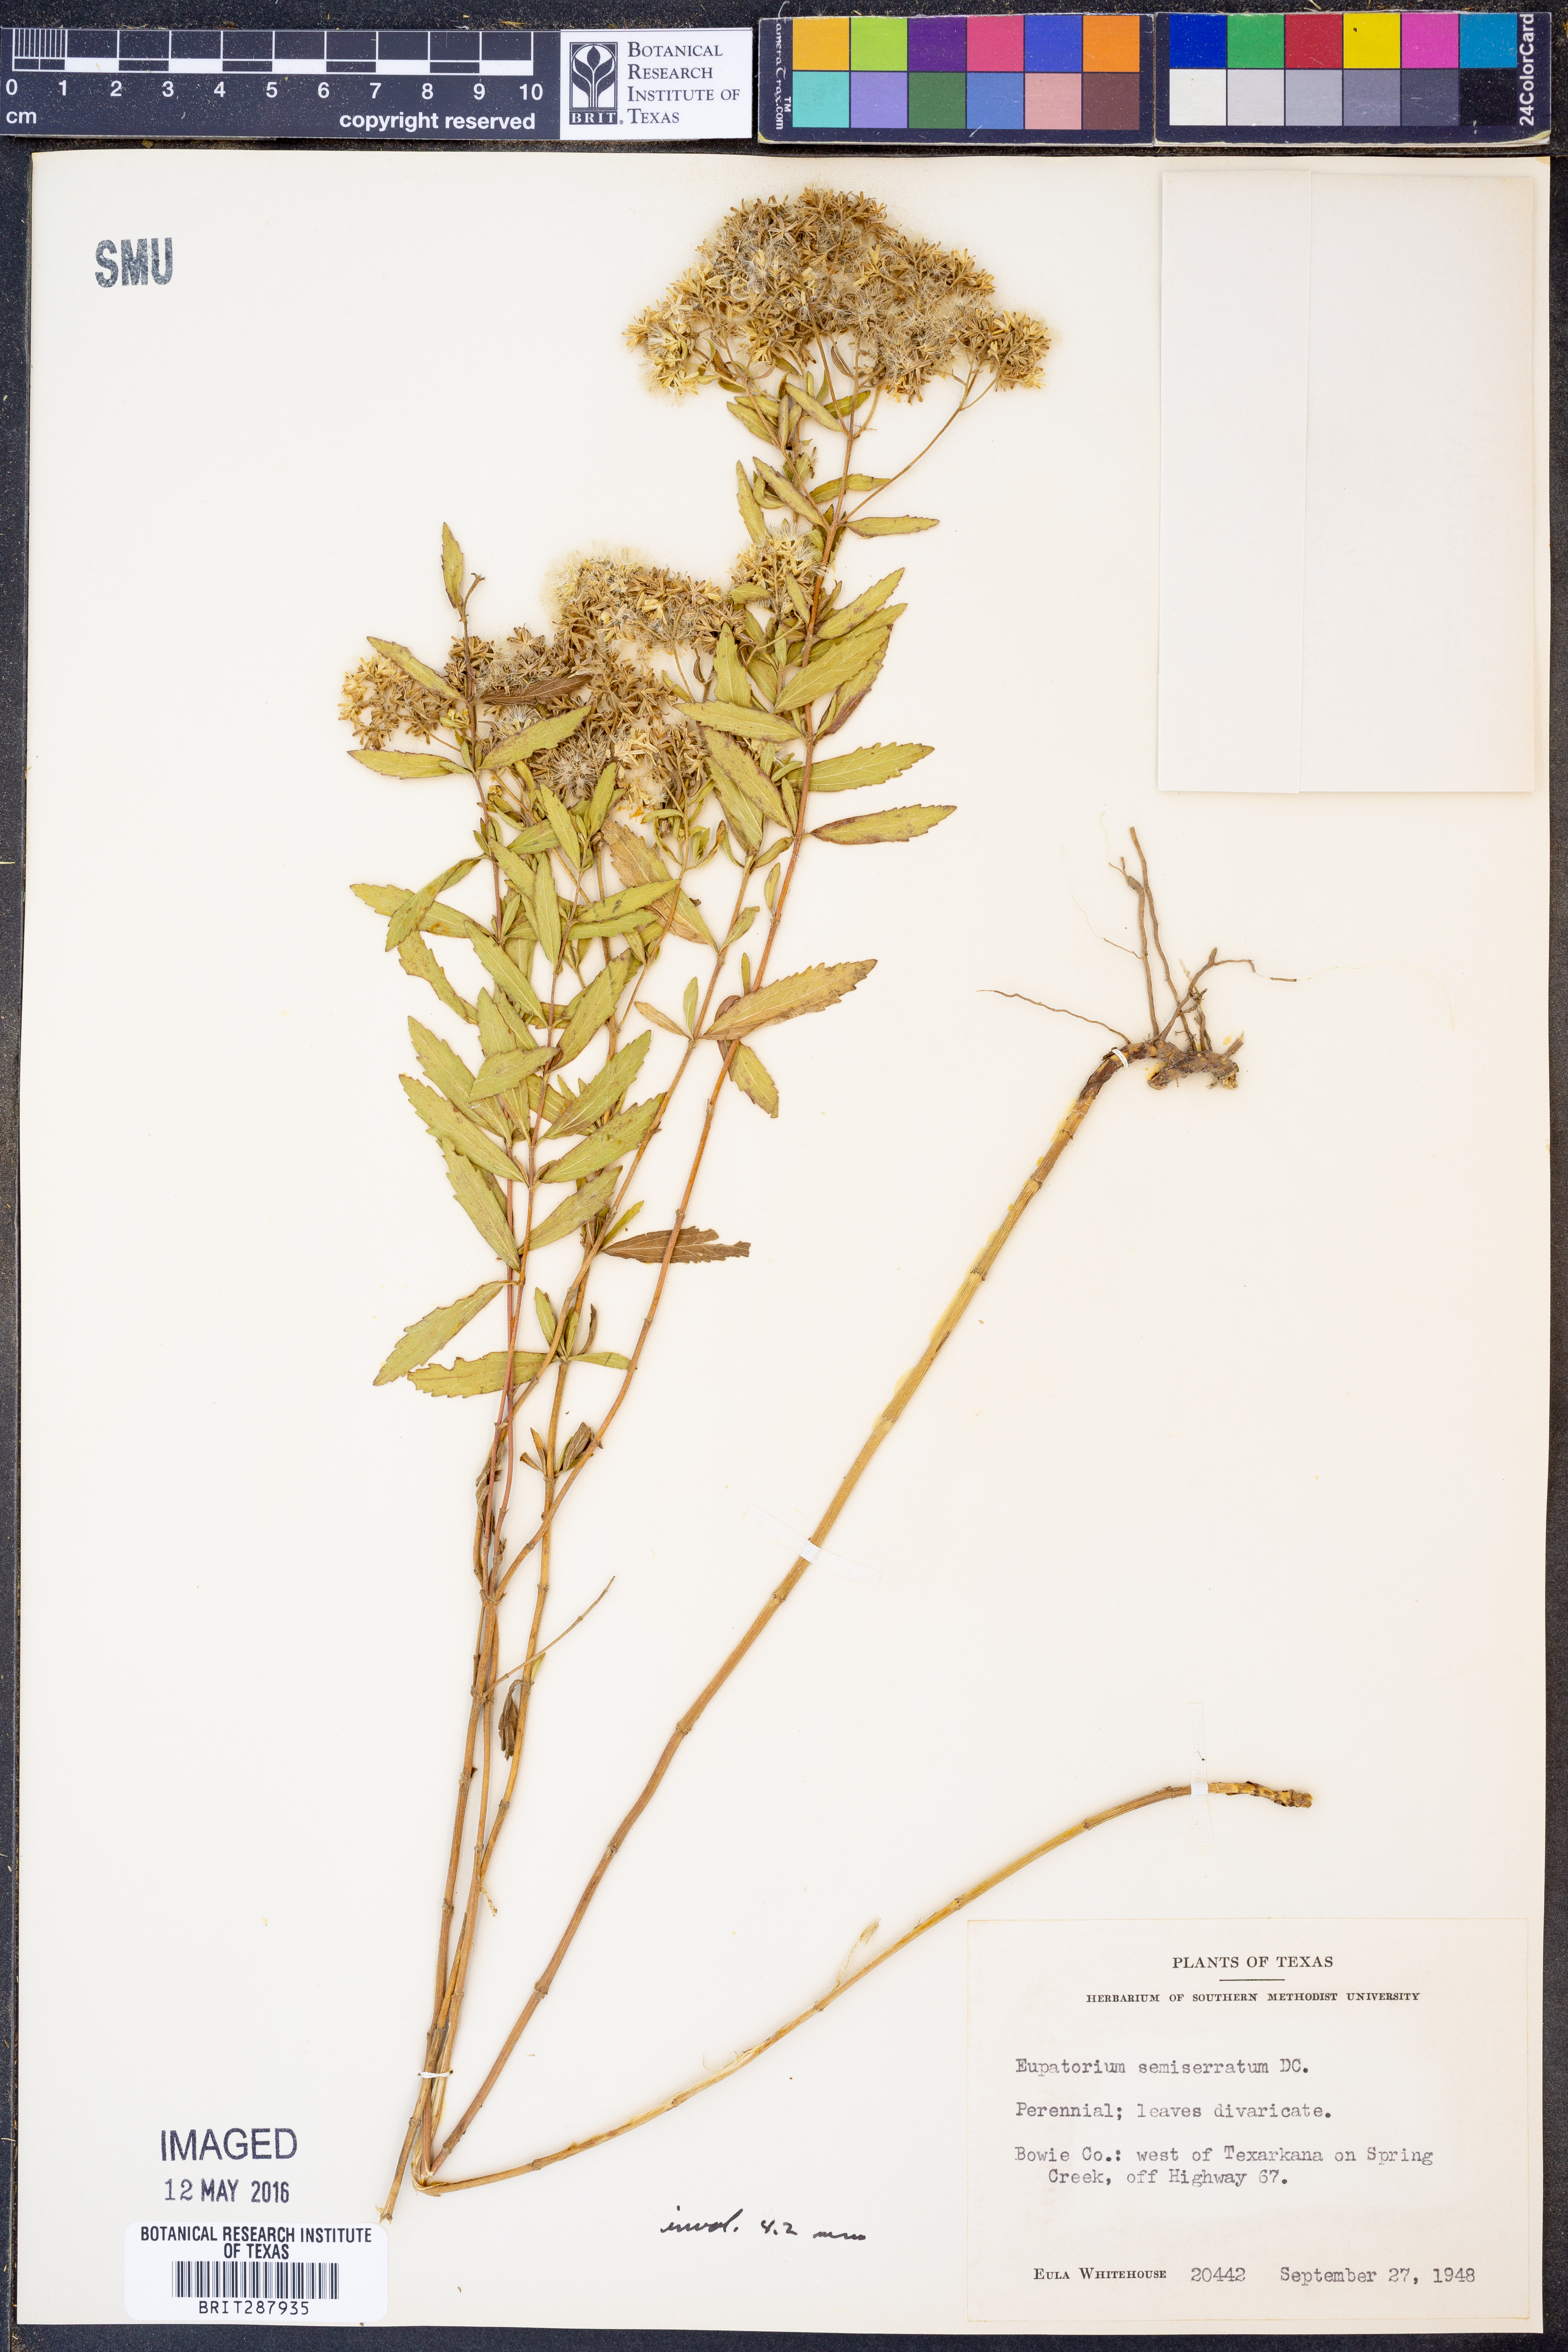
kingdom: Plantae
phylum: Tracheophyta
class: Magnoliopsida
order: Asterales
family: Asteraceae
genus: Eupatorium
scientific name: Eupatorium semiserratum
